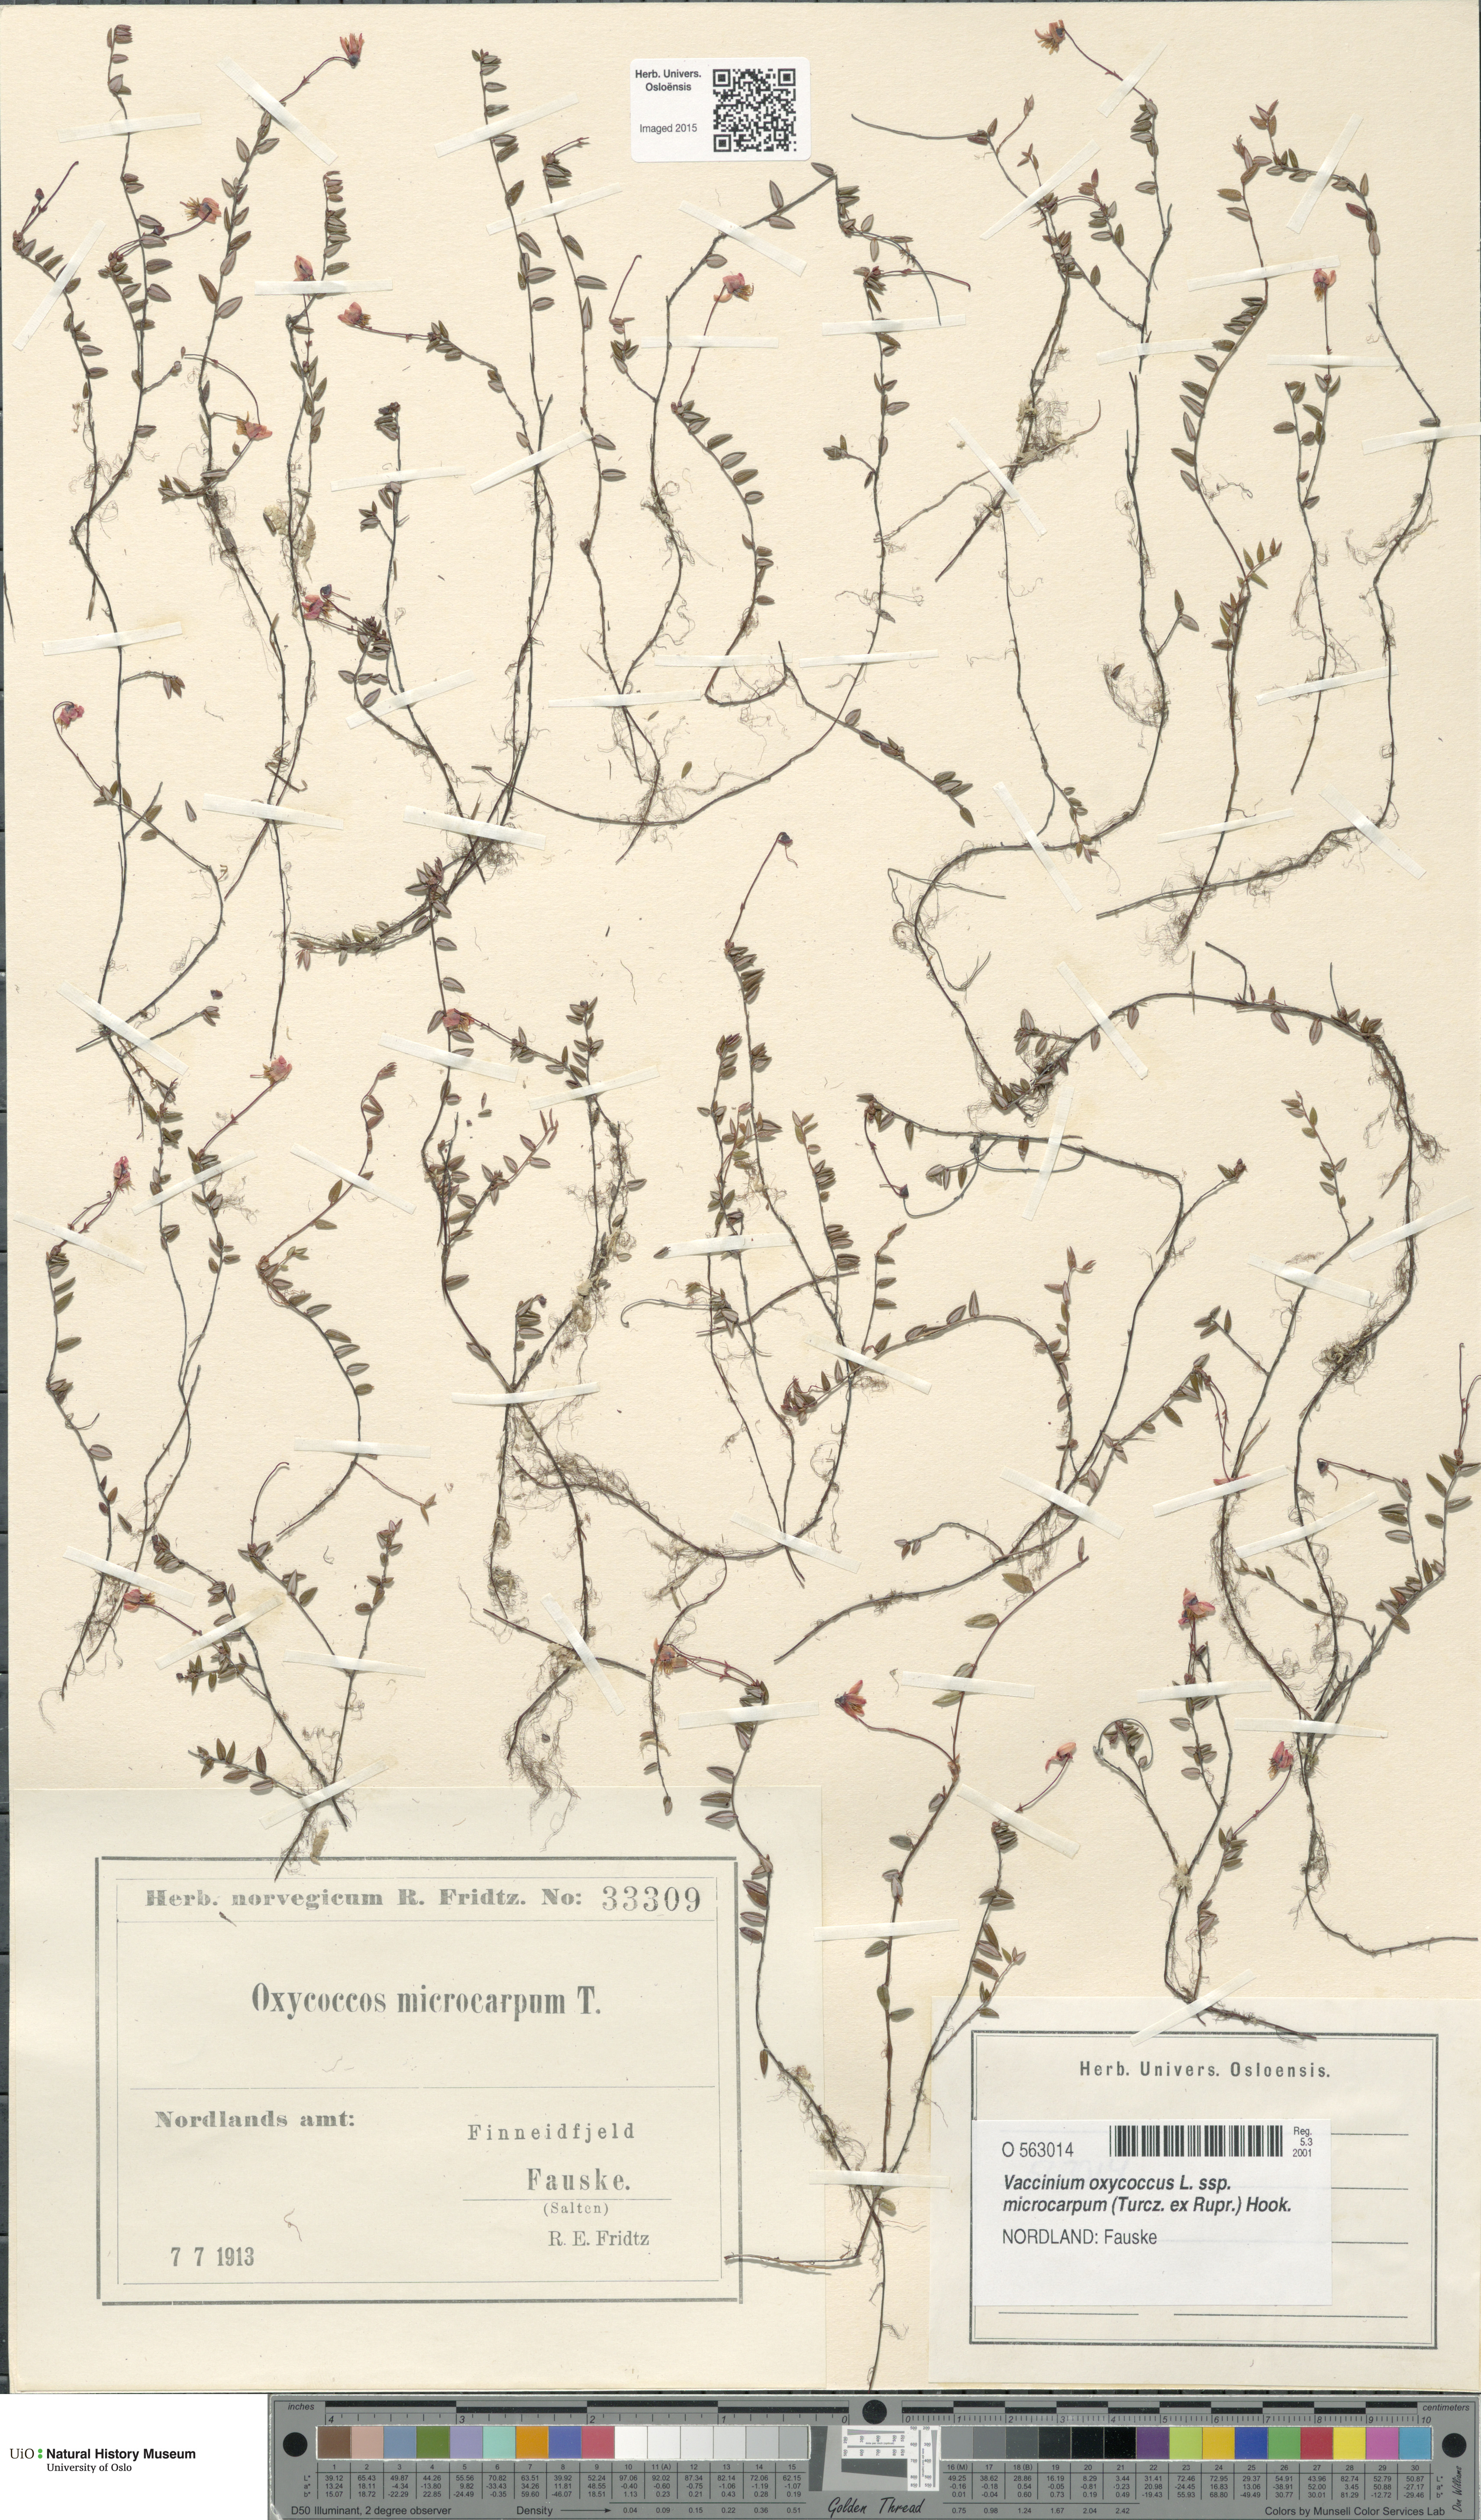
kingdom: Plantae
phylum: Tracheophyta
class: Magnoliopsida
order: Ericales
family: Ericaceae
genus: Vaccinium
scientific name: Vaccinium microcarpum
